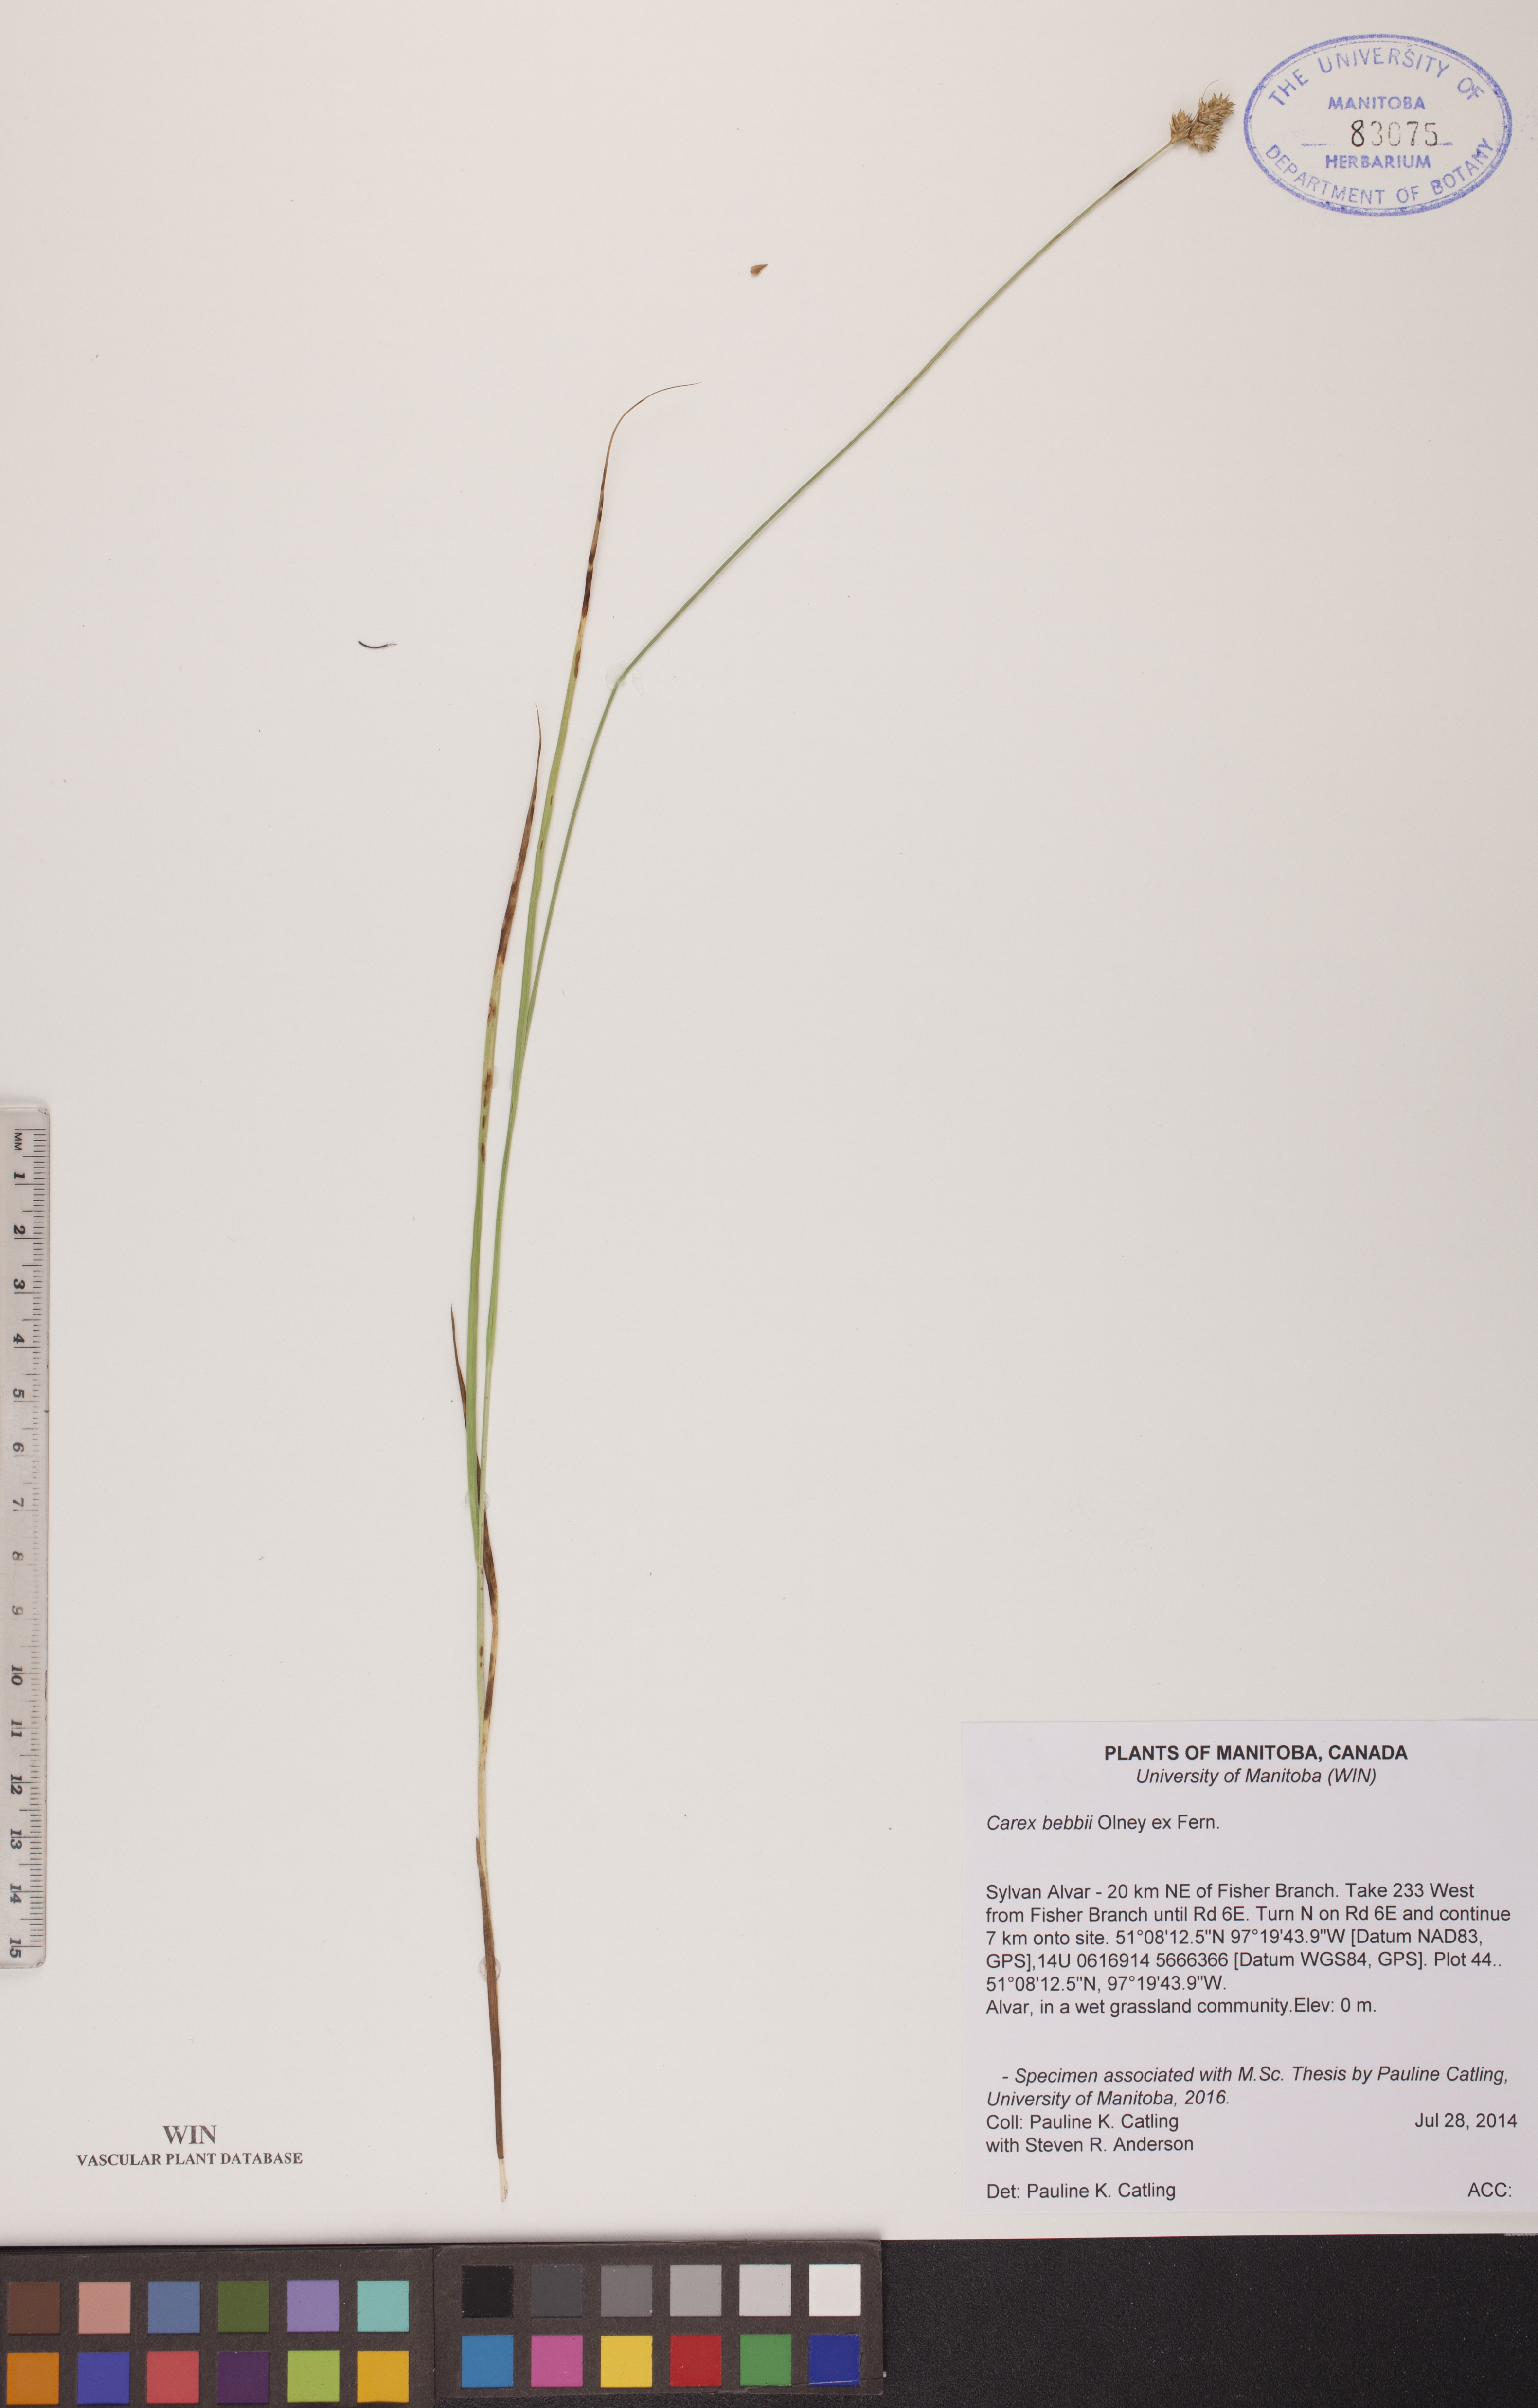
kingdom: Plantae
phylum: Tracheophyta
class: Liliopsida
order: Poales
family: Cyperaceae
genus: Carex
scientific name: Carex bebbii
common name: Bebb's sedge
